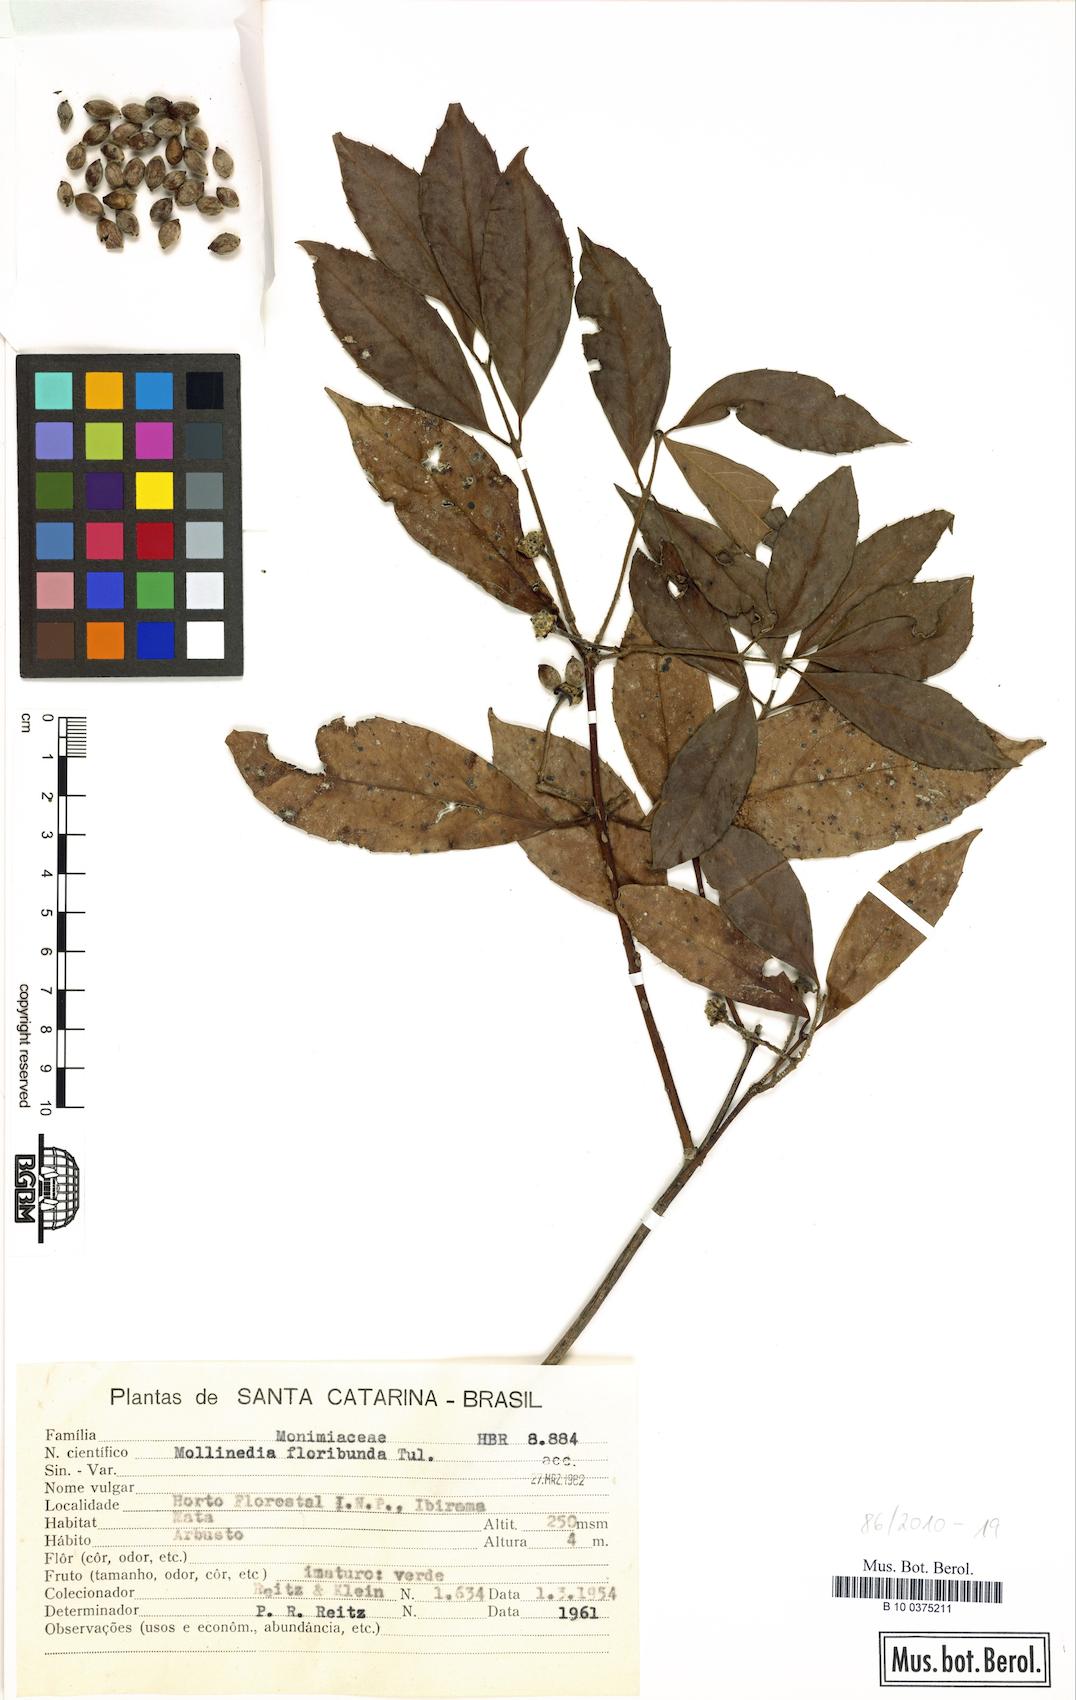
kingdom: Plantae
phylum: Tracheophyta
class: Magnoliopsida
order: Laurales
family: Monimiaceae
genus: Mollinedia
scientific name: Mollinedia umbellata
